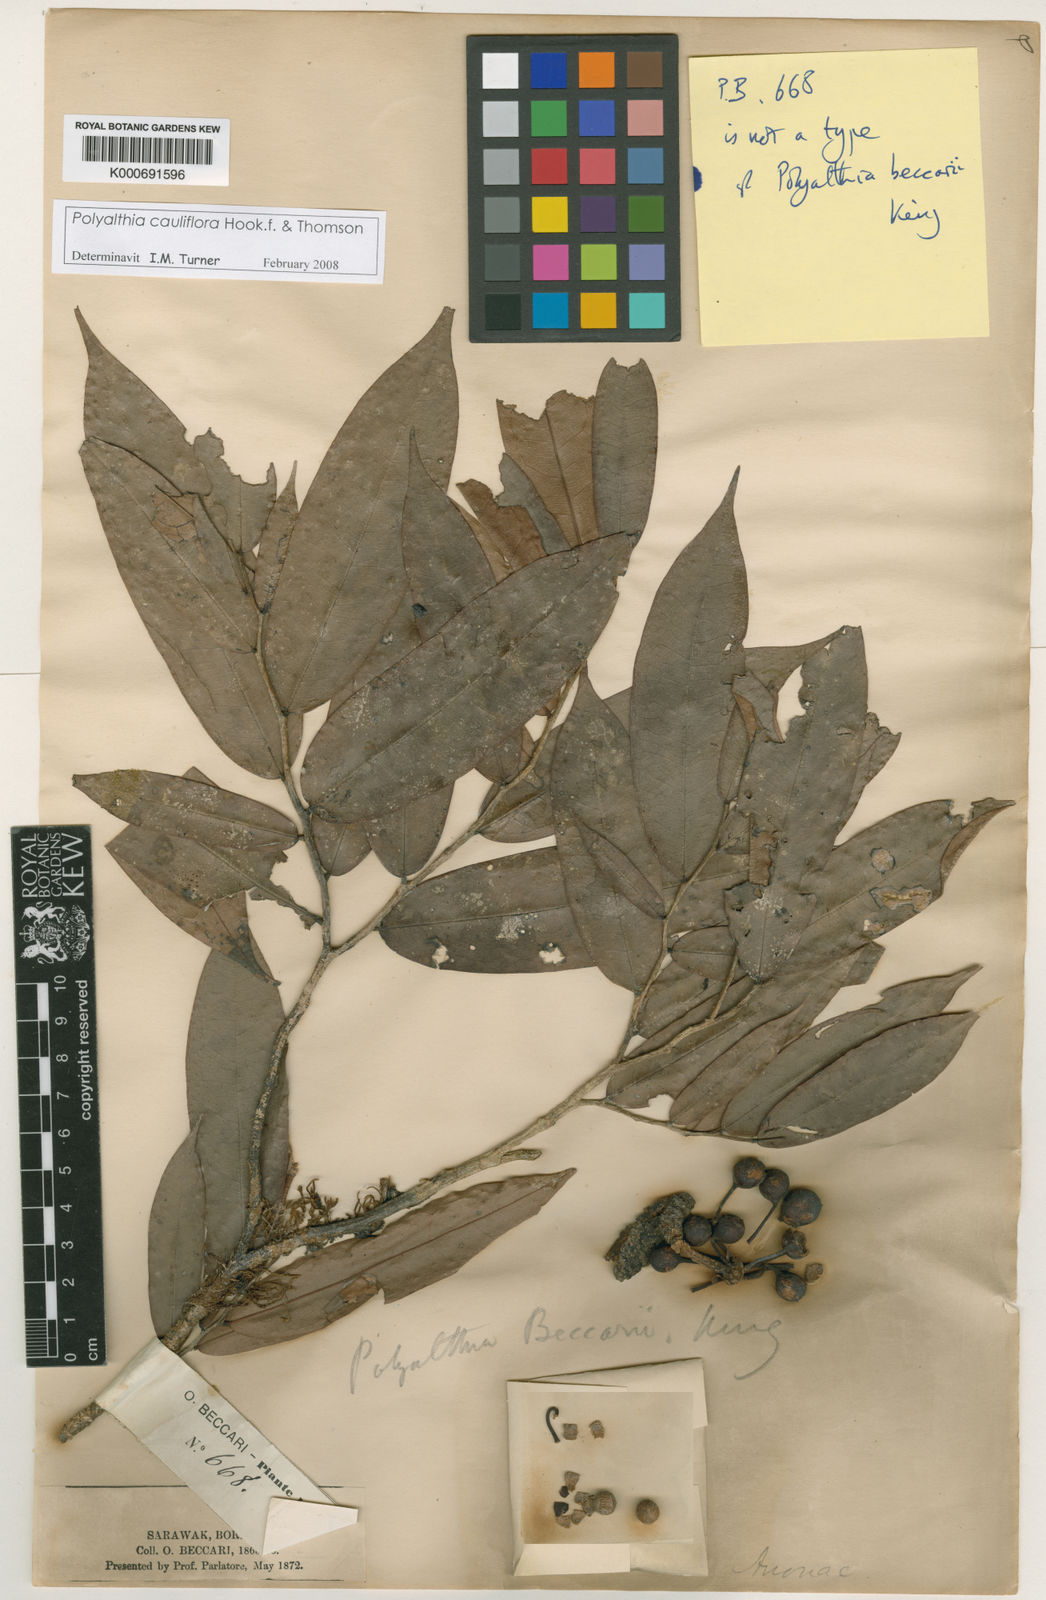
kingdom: Plantae
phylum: Tracheophyta
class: Magnoliopsida
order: Magnoliales
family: Annonaceae
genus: Polyalthia
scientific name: Polyalthia cauliflora
